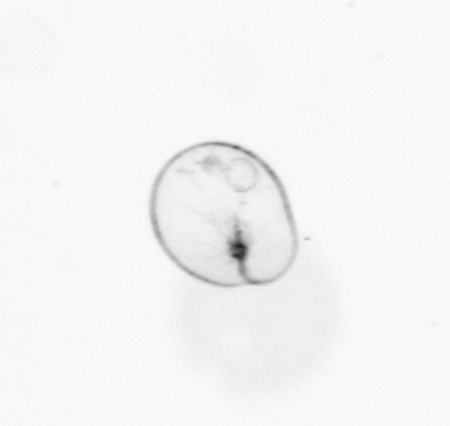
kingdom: Chromista
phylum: Myzozoa
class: Dinophyceae
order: Noctilucales
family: Noctilucaceae
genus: Noctiluca
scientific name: Noctiluca scintillans
